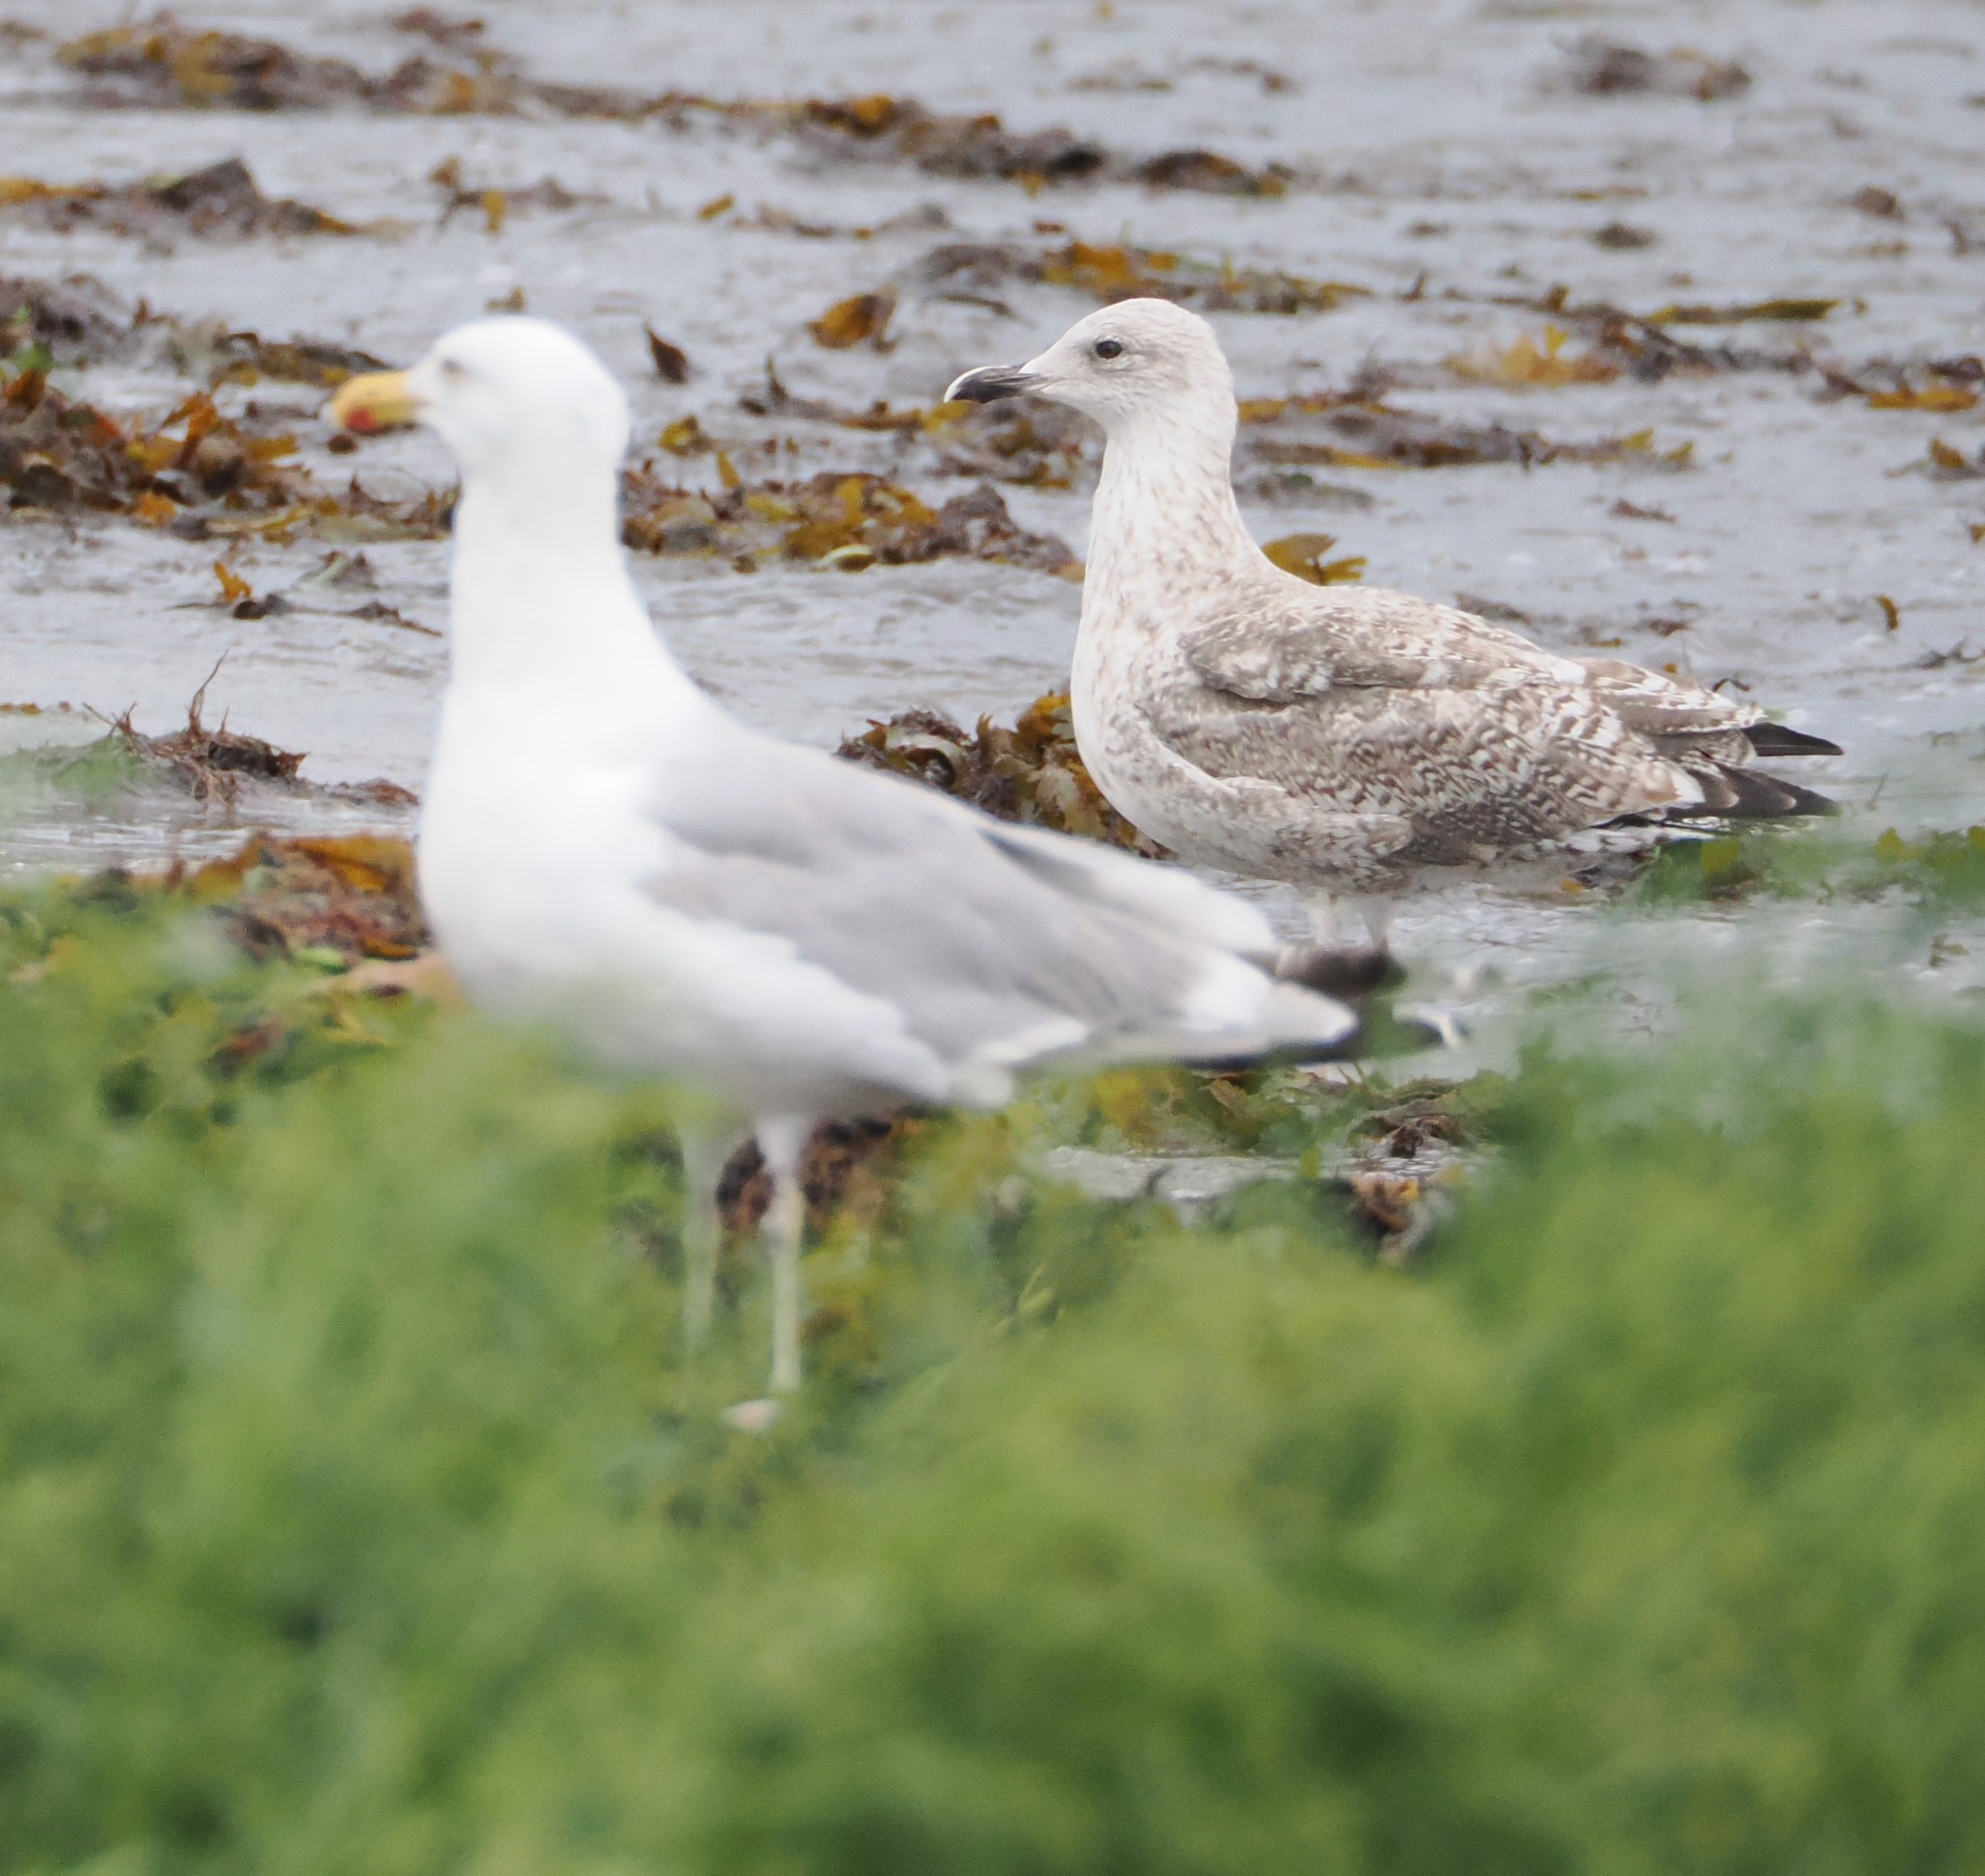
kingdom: Animalia
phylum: Chordata
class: Aves
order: Charadriiformes
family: Laridae
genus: Larus
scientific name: Larus argentatus
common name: Sølvmåge
